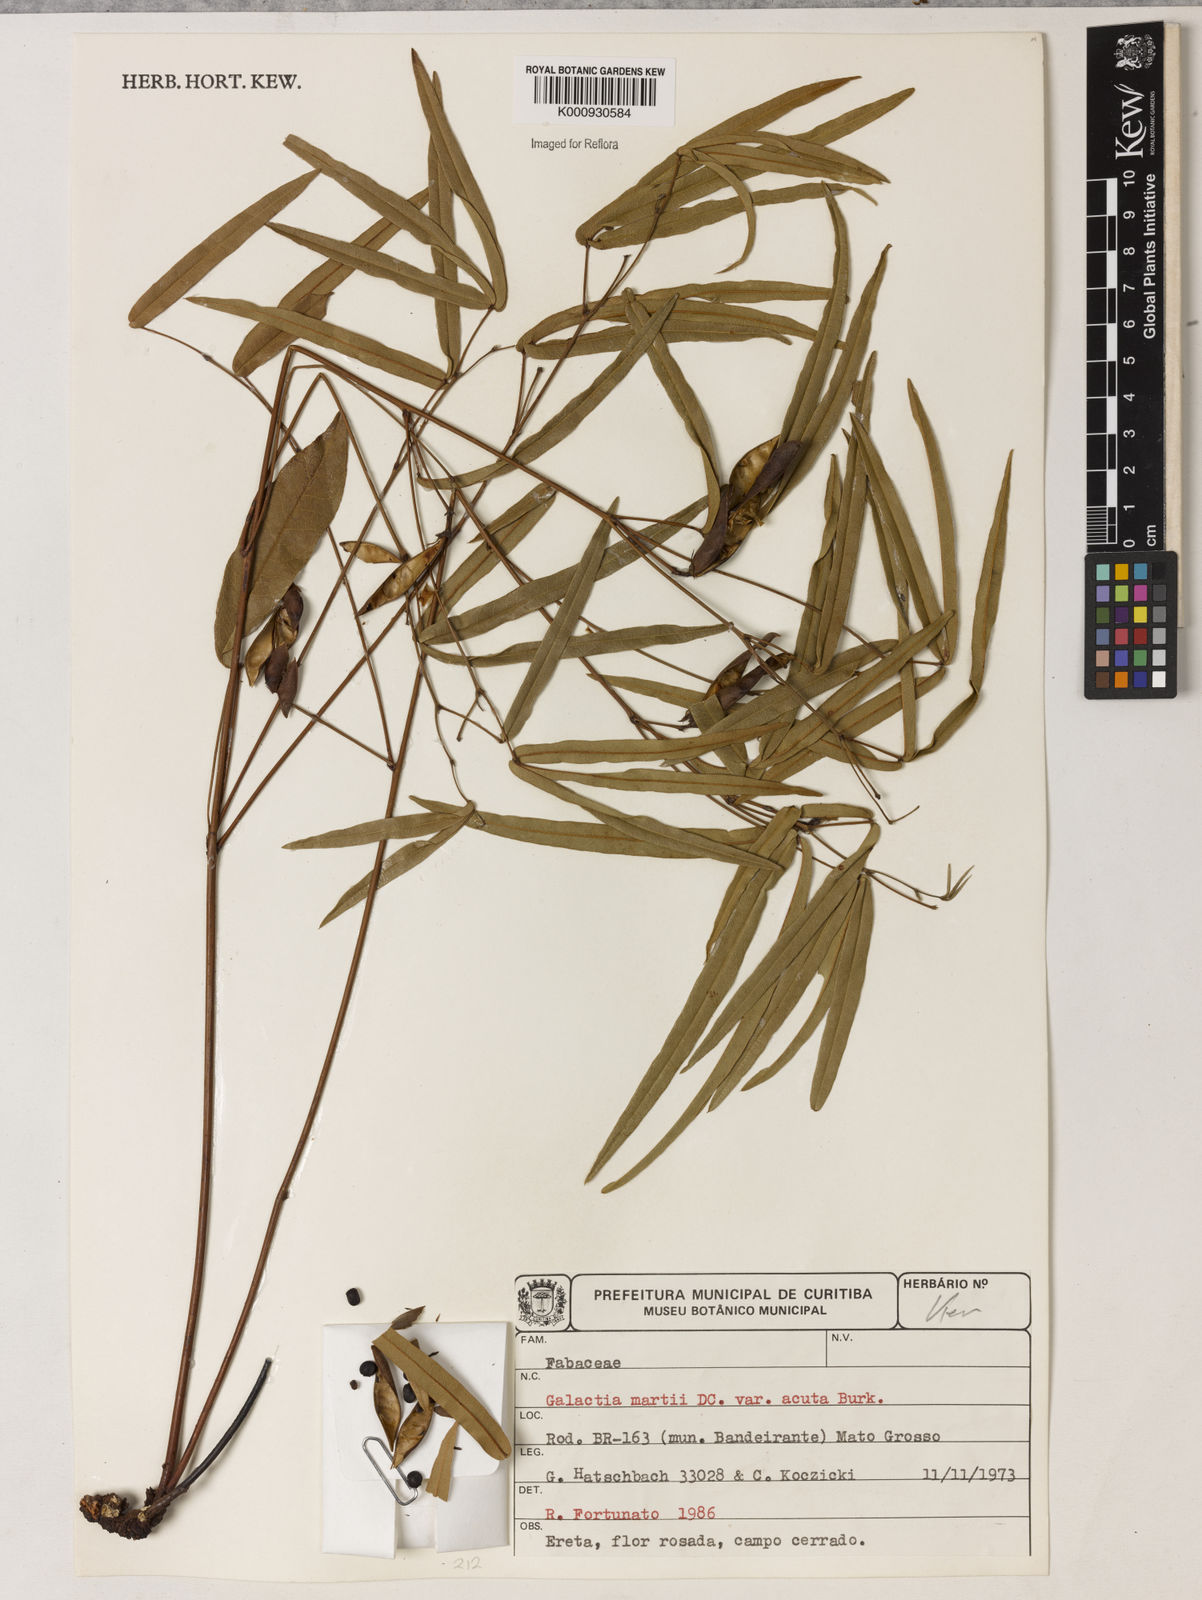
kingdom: Plantae
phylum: Tracheophyta
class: Magnoliopsida
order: Fabales
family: Fabaceae
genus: Betencourtia
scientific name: Betencourtia neesii
